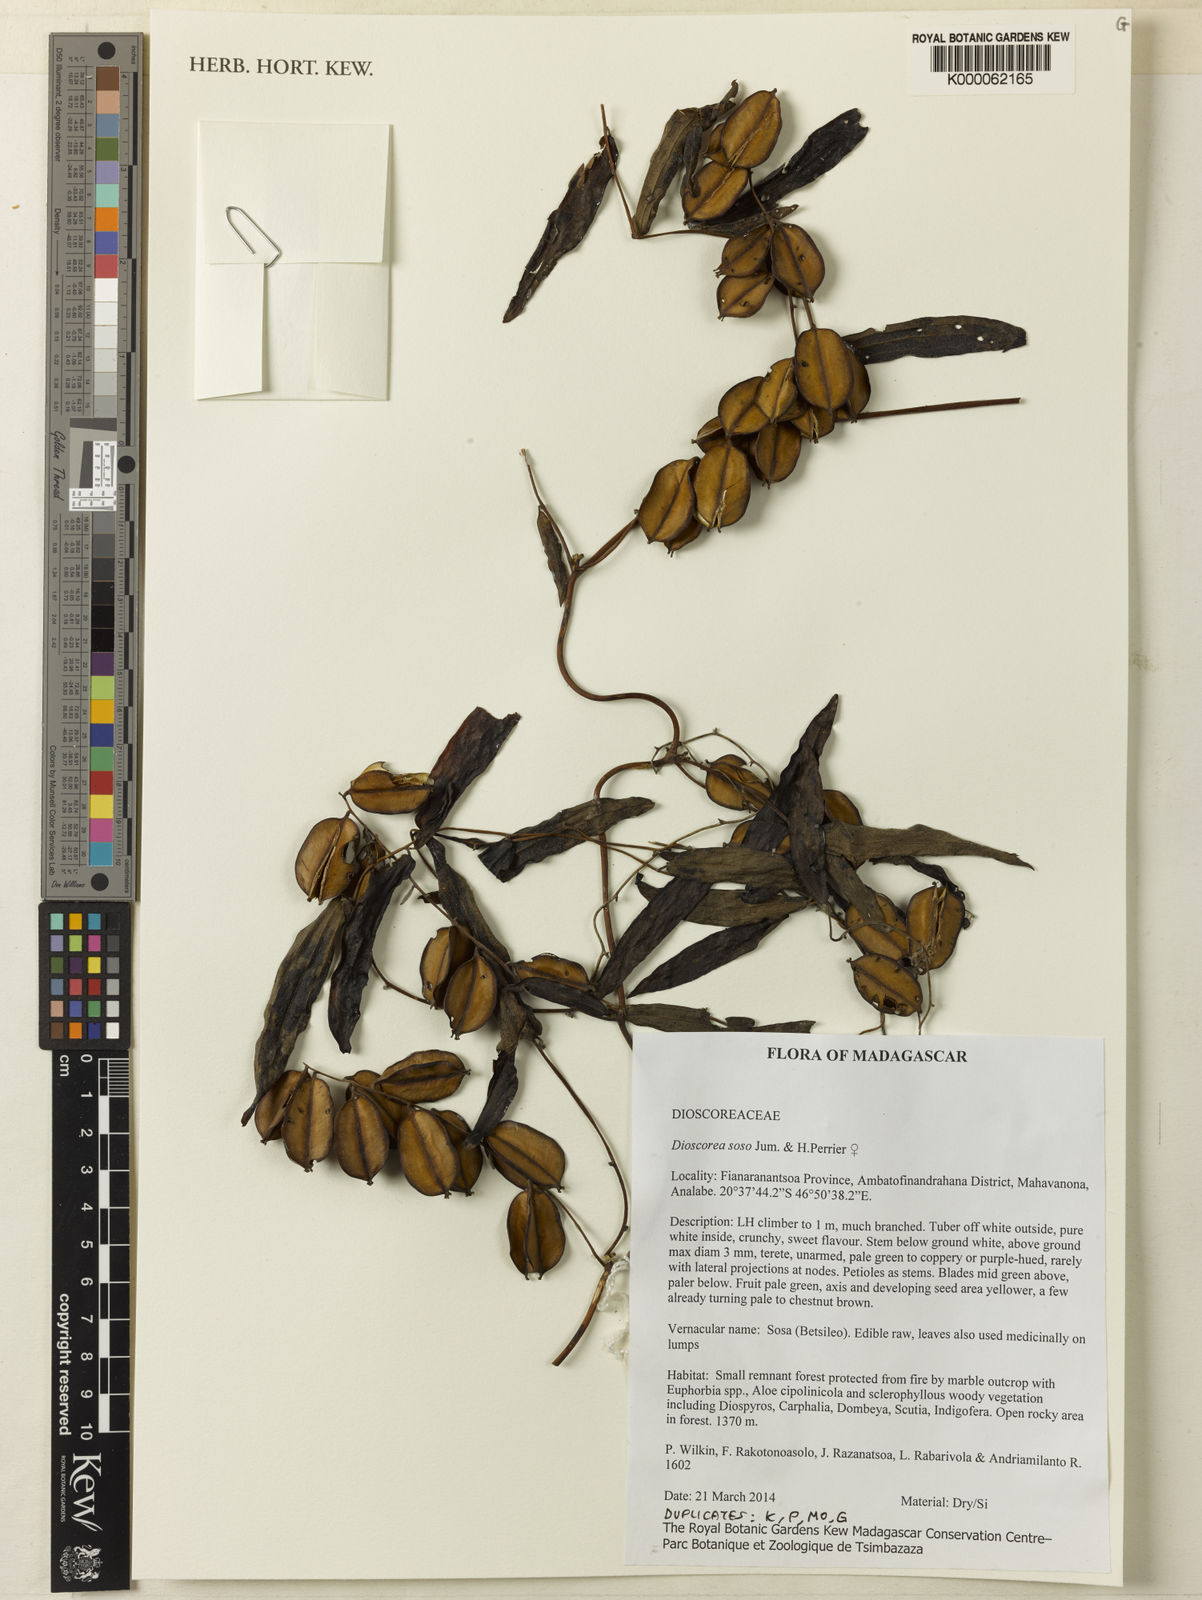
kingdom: Plantae
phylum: Tracheophyta
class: Liliopsida
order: Dioscoreales
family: Dioscoreaceae
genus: Dioscorea
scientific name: Dioscorea soso
